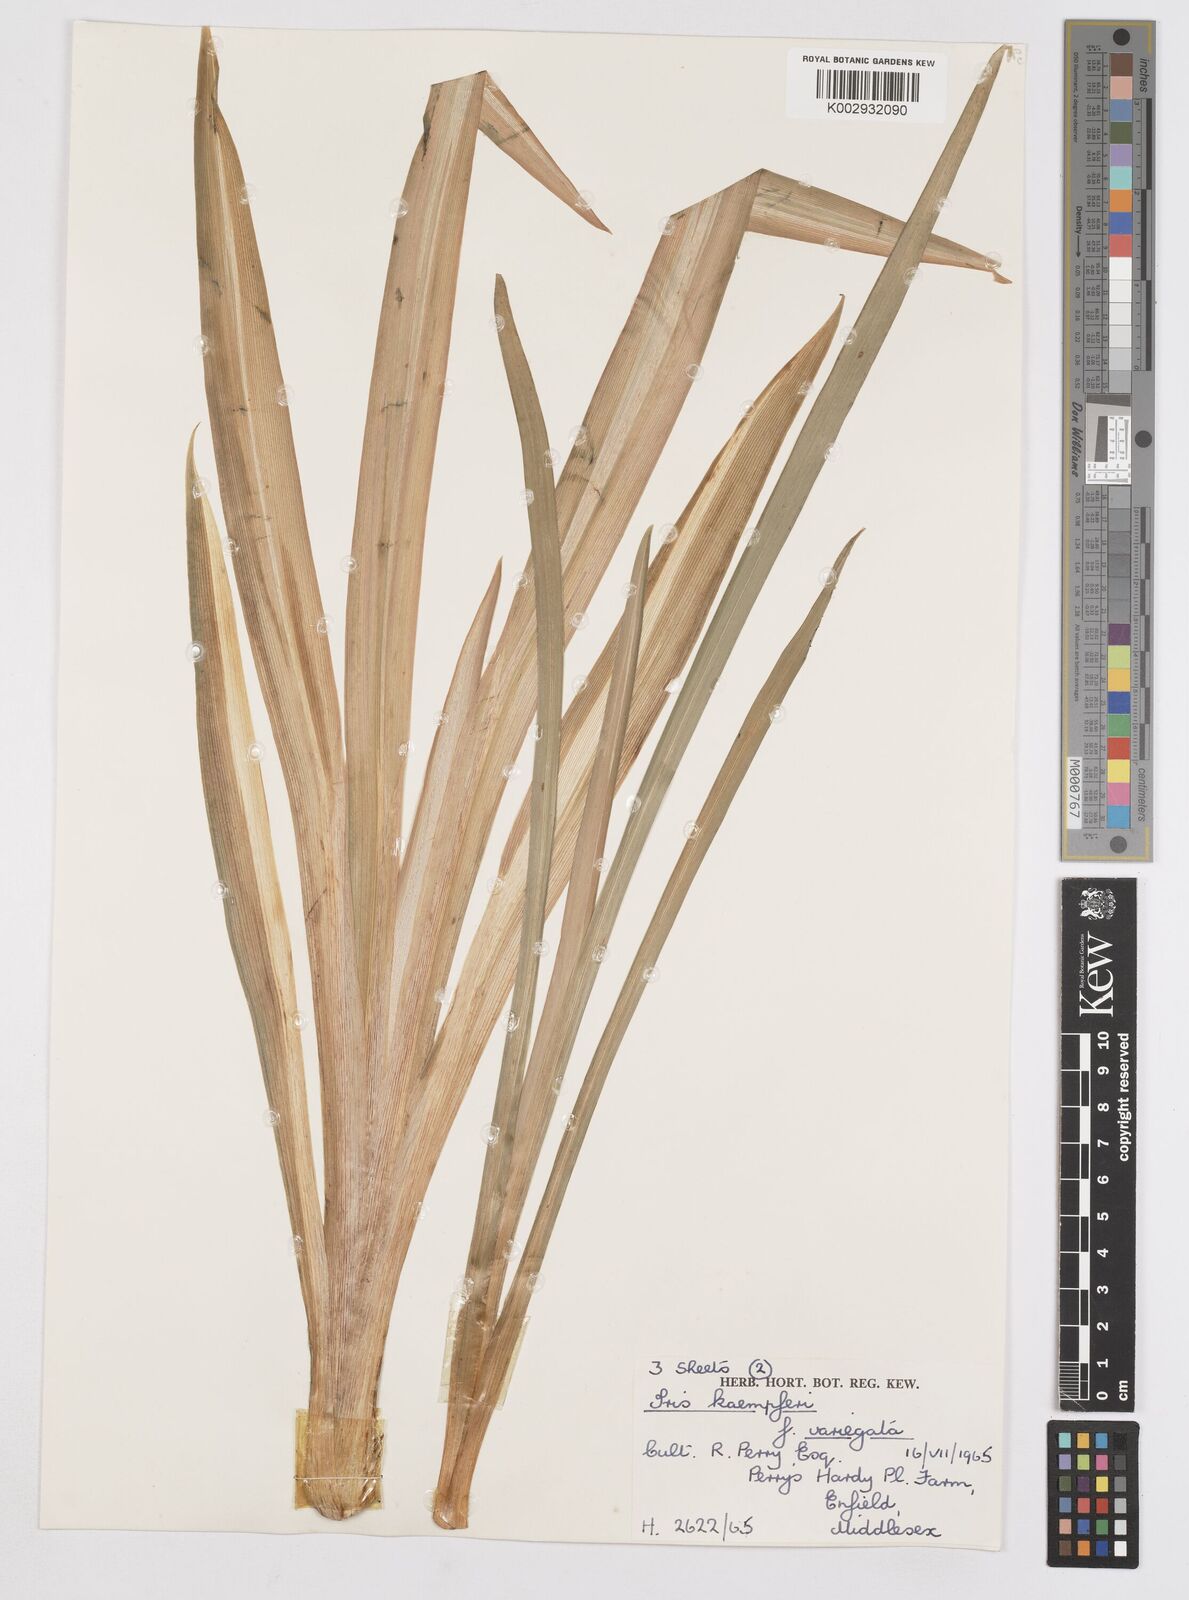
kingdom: Plantae
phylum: Tracheophyta
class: Liliopsida
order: Asparagales
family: Iridaceae
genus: Iris
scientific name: Iris ensata
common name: Beaked iris
